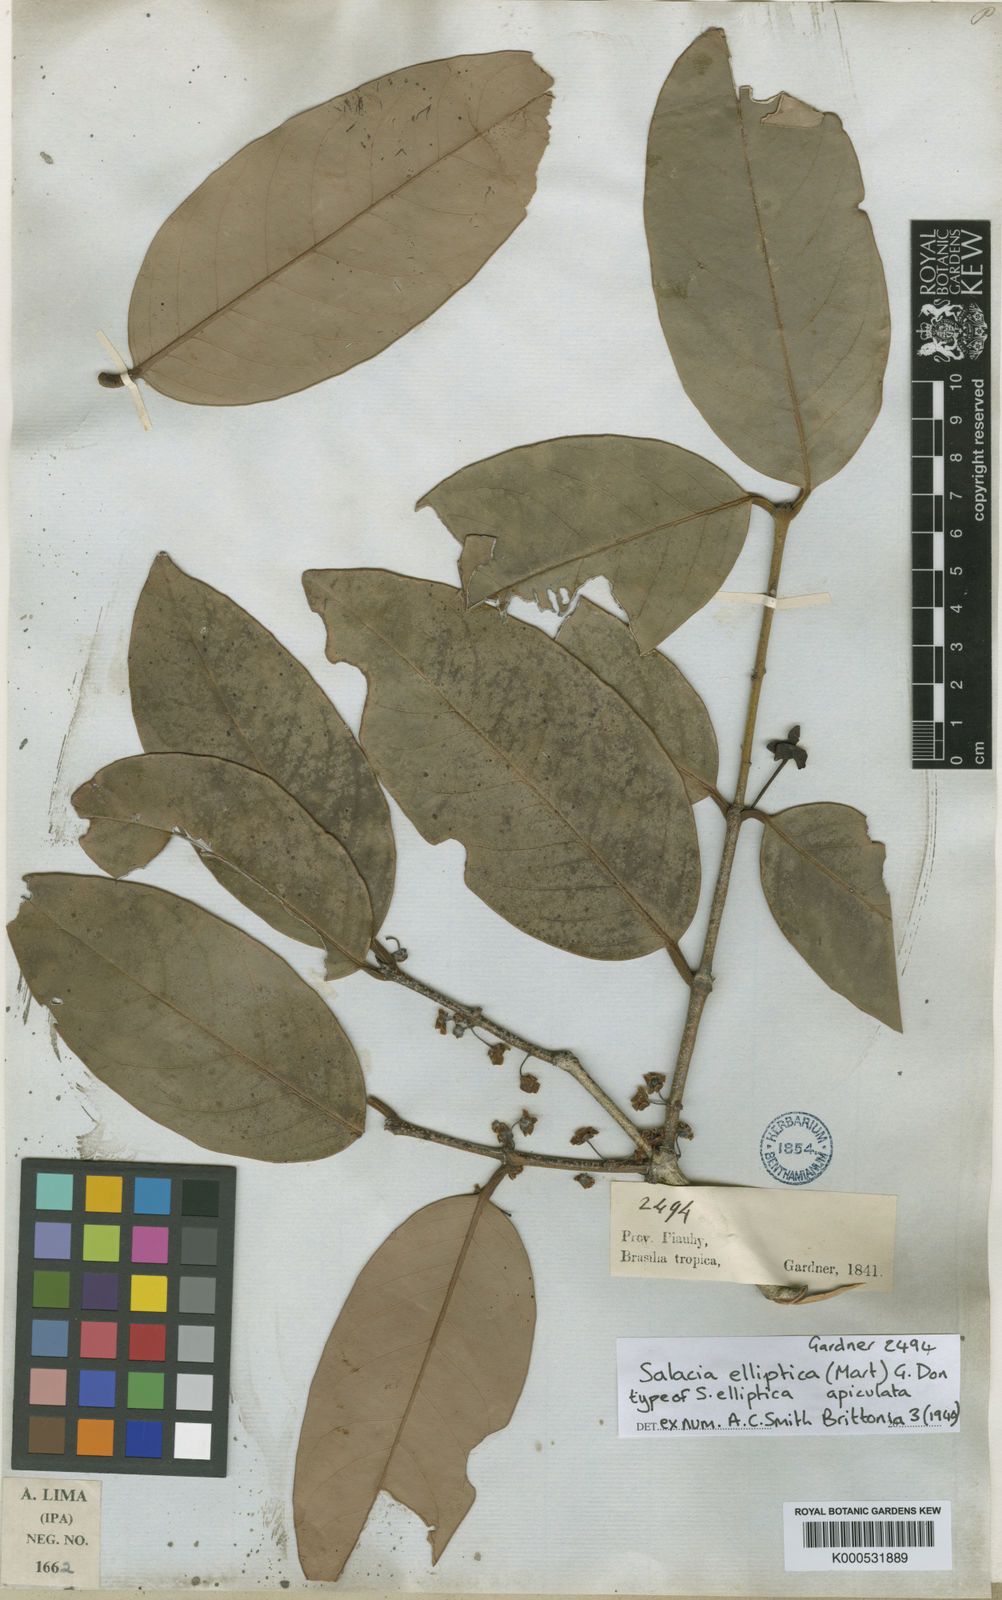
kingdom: Plantae
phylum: Tracheophyta
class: Magnoliopsida
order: Celastrales
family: Celastraceae
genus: Salacia
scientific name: Salacia elliptica
